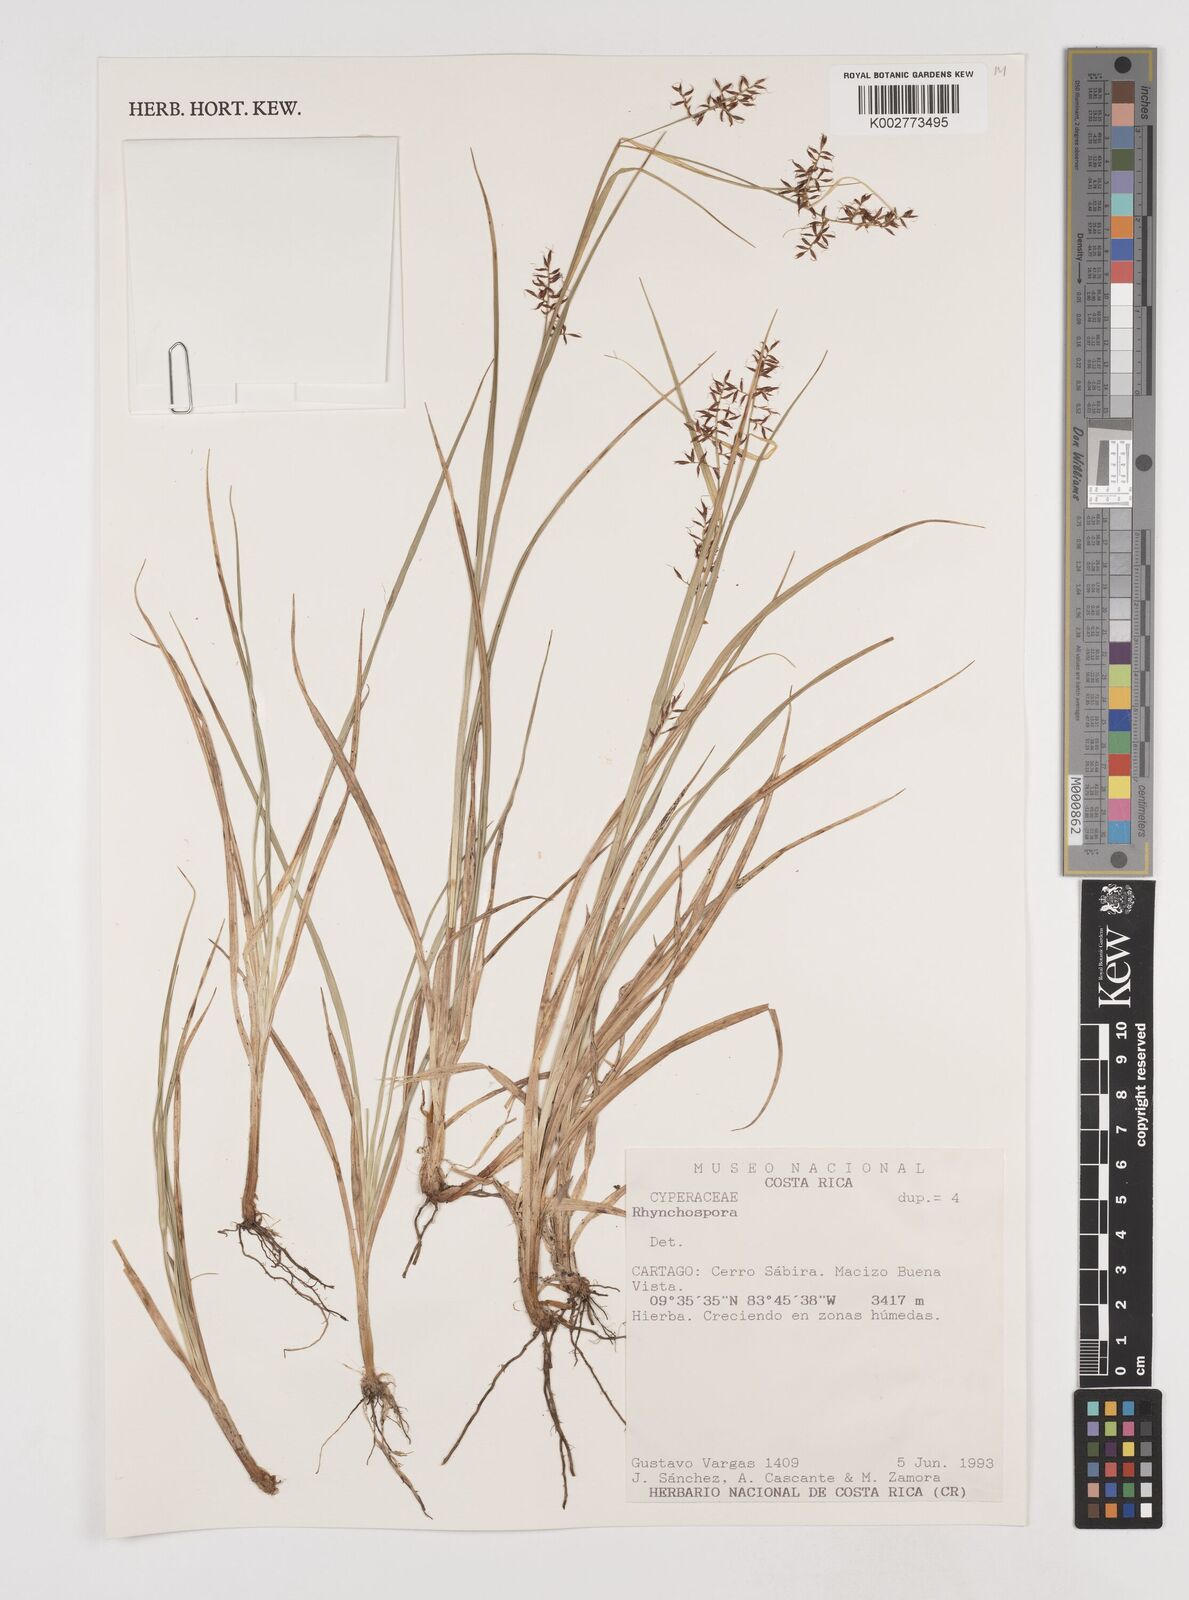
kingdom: Plantae
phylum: Tracheophyta
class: Liliopsida
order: Poales
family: Cyperaceae
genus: Rhynchospora
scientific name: Rhynchospora
